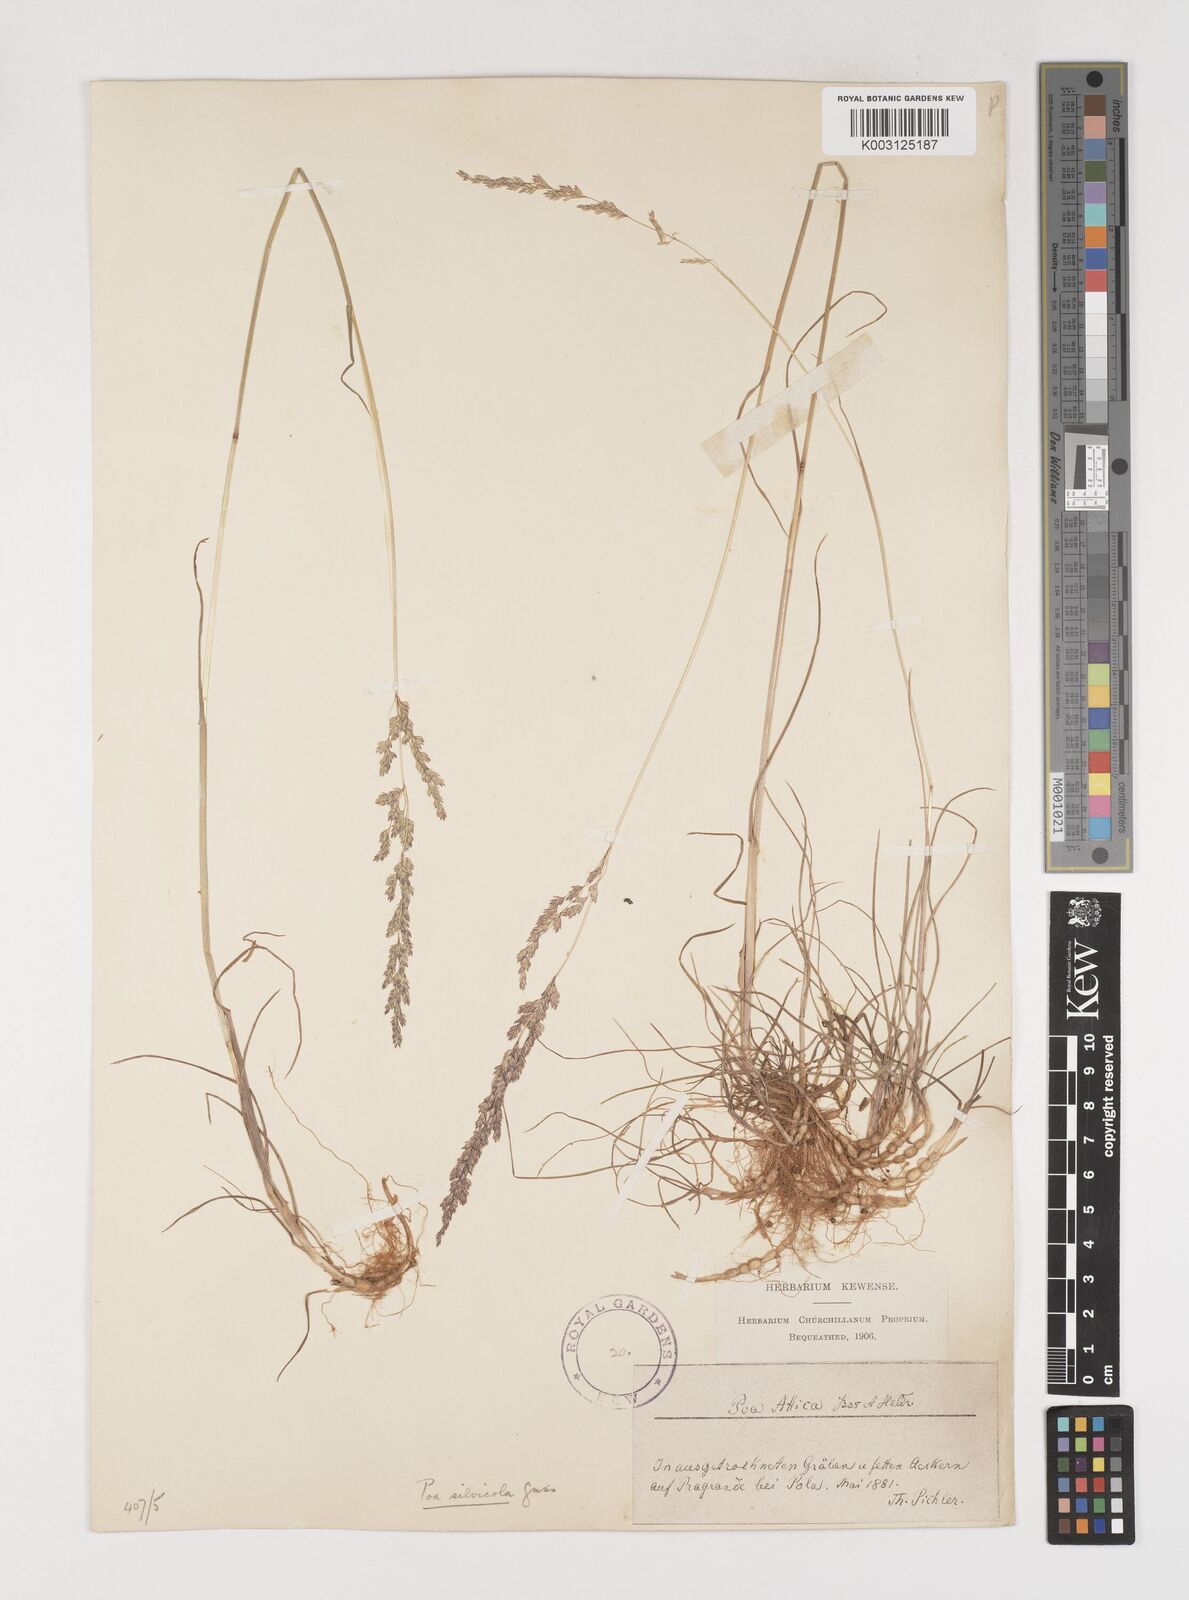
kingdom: Plantae
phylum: Tracheophyta
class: Liliopsida
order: Poales
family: Poaceae
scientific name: Poaceae
